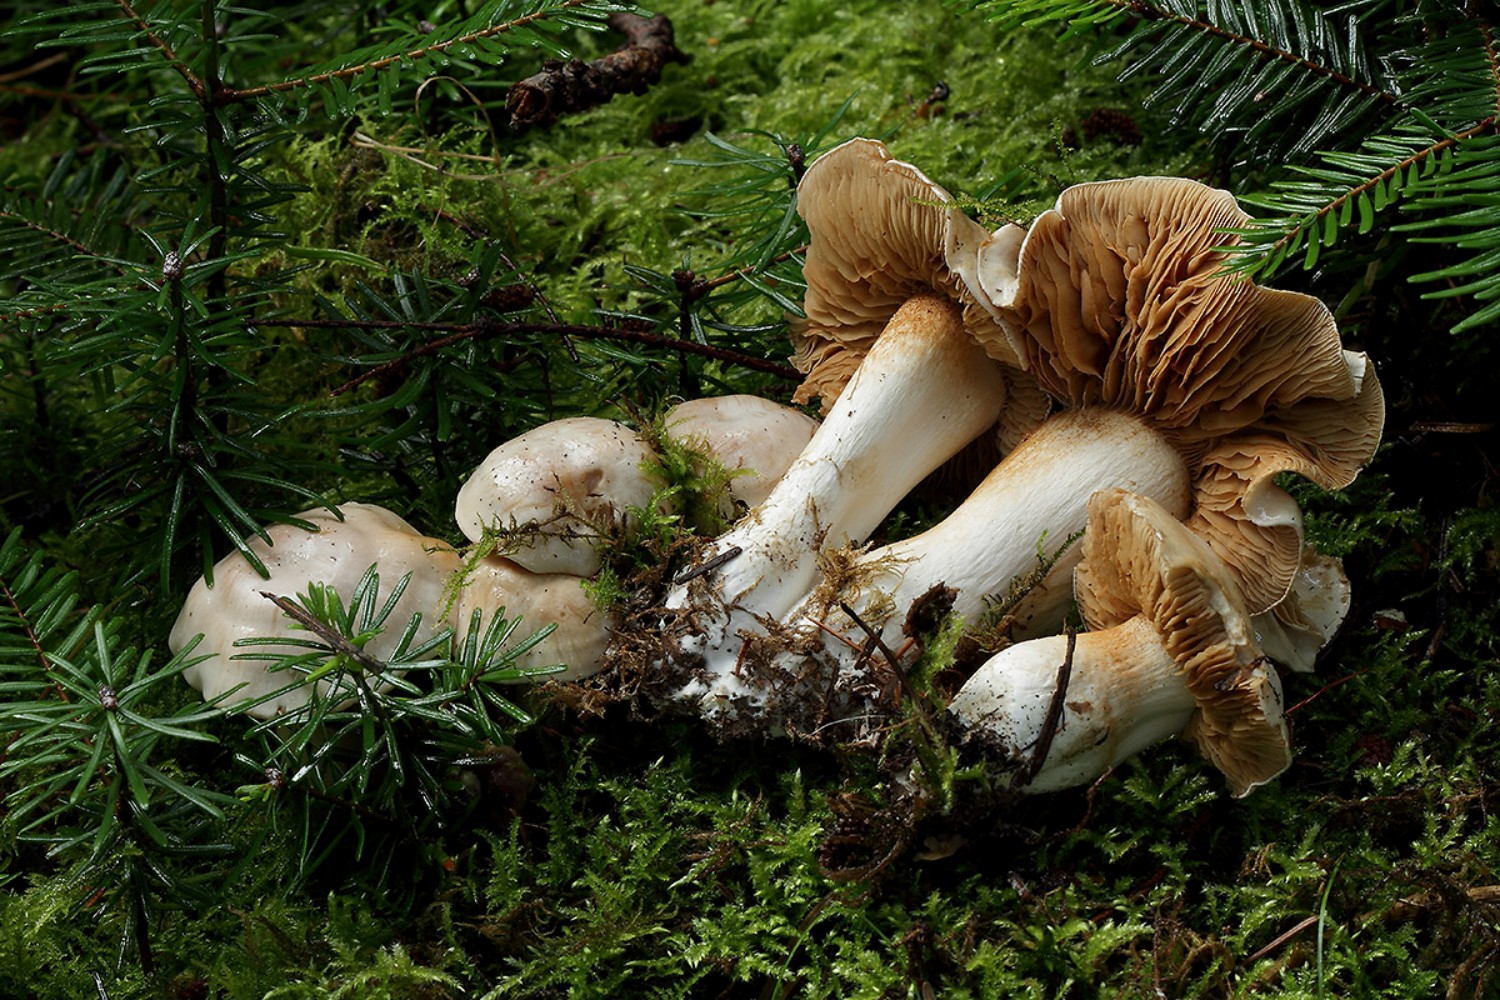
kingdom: Fungi
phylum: Basidiomycota
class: Agaricomycetes
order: Agaricales
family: Cortinariaceae
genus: Thaxterogaster
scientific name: Thaxterogaster leucoluteolus
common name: isabella slørhat
